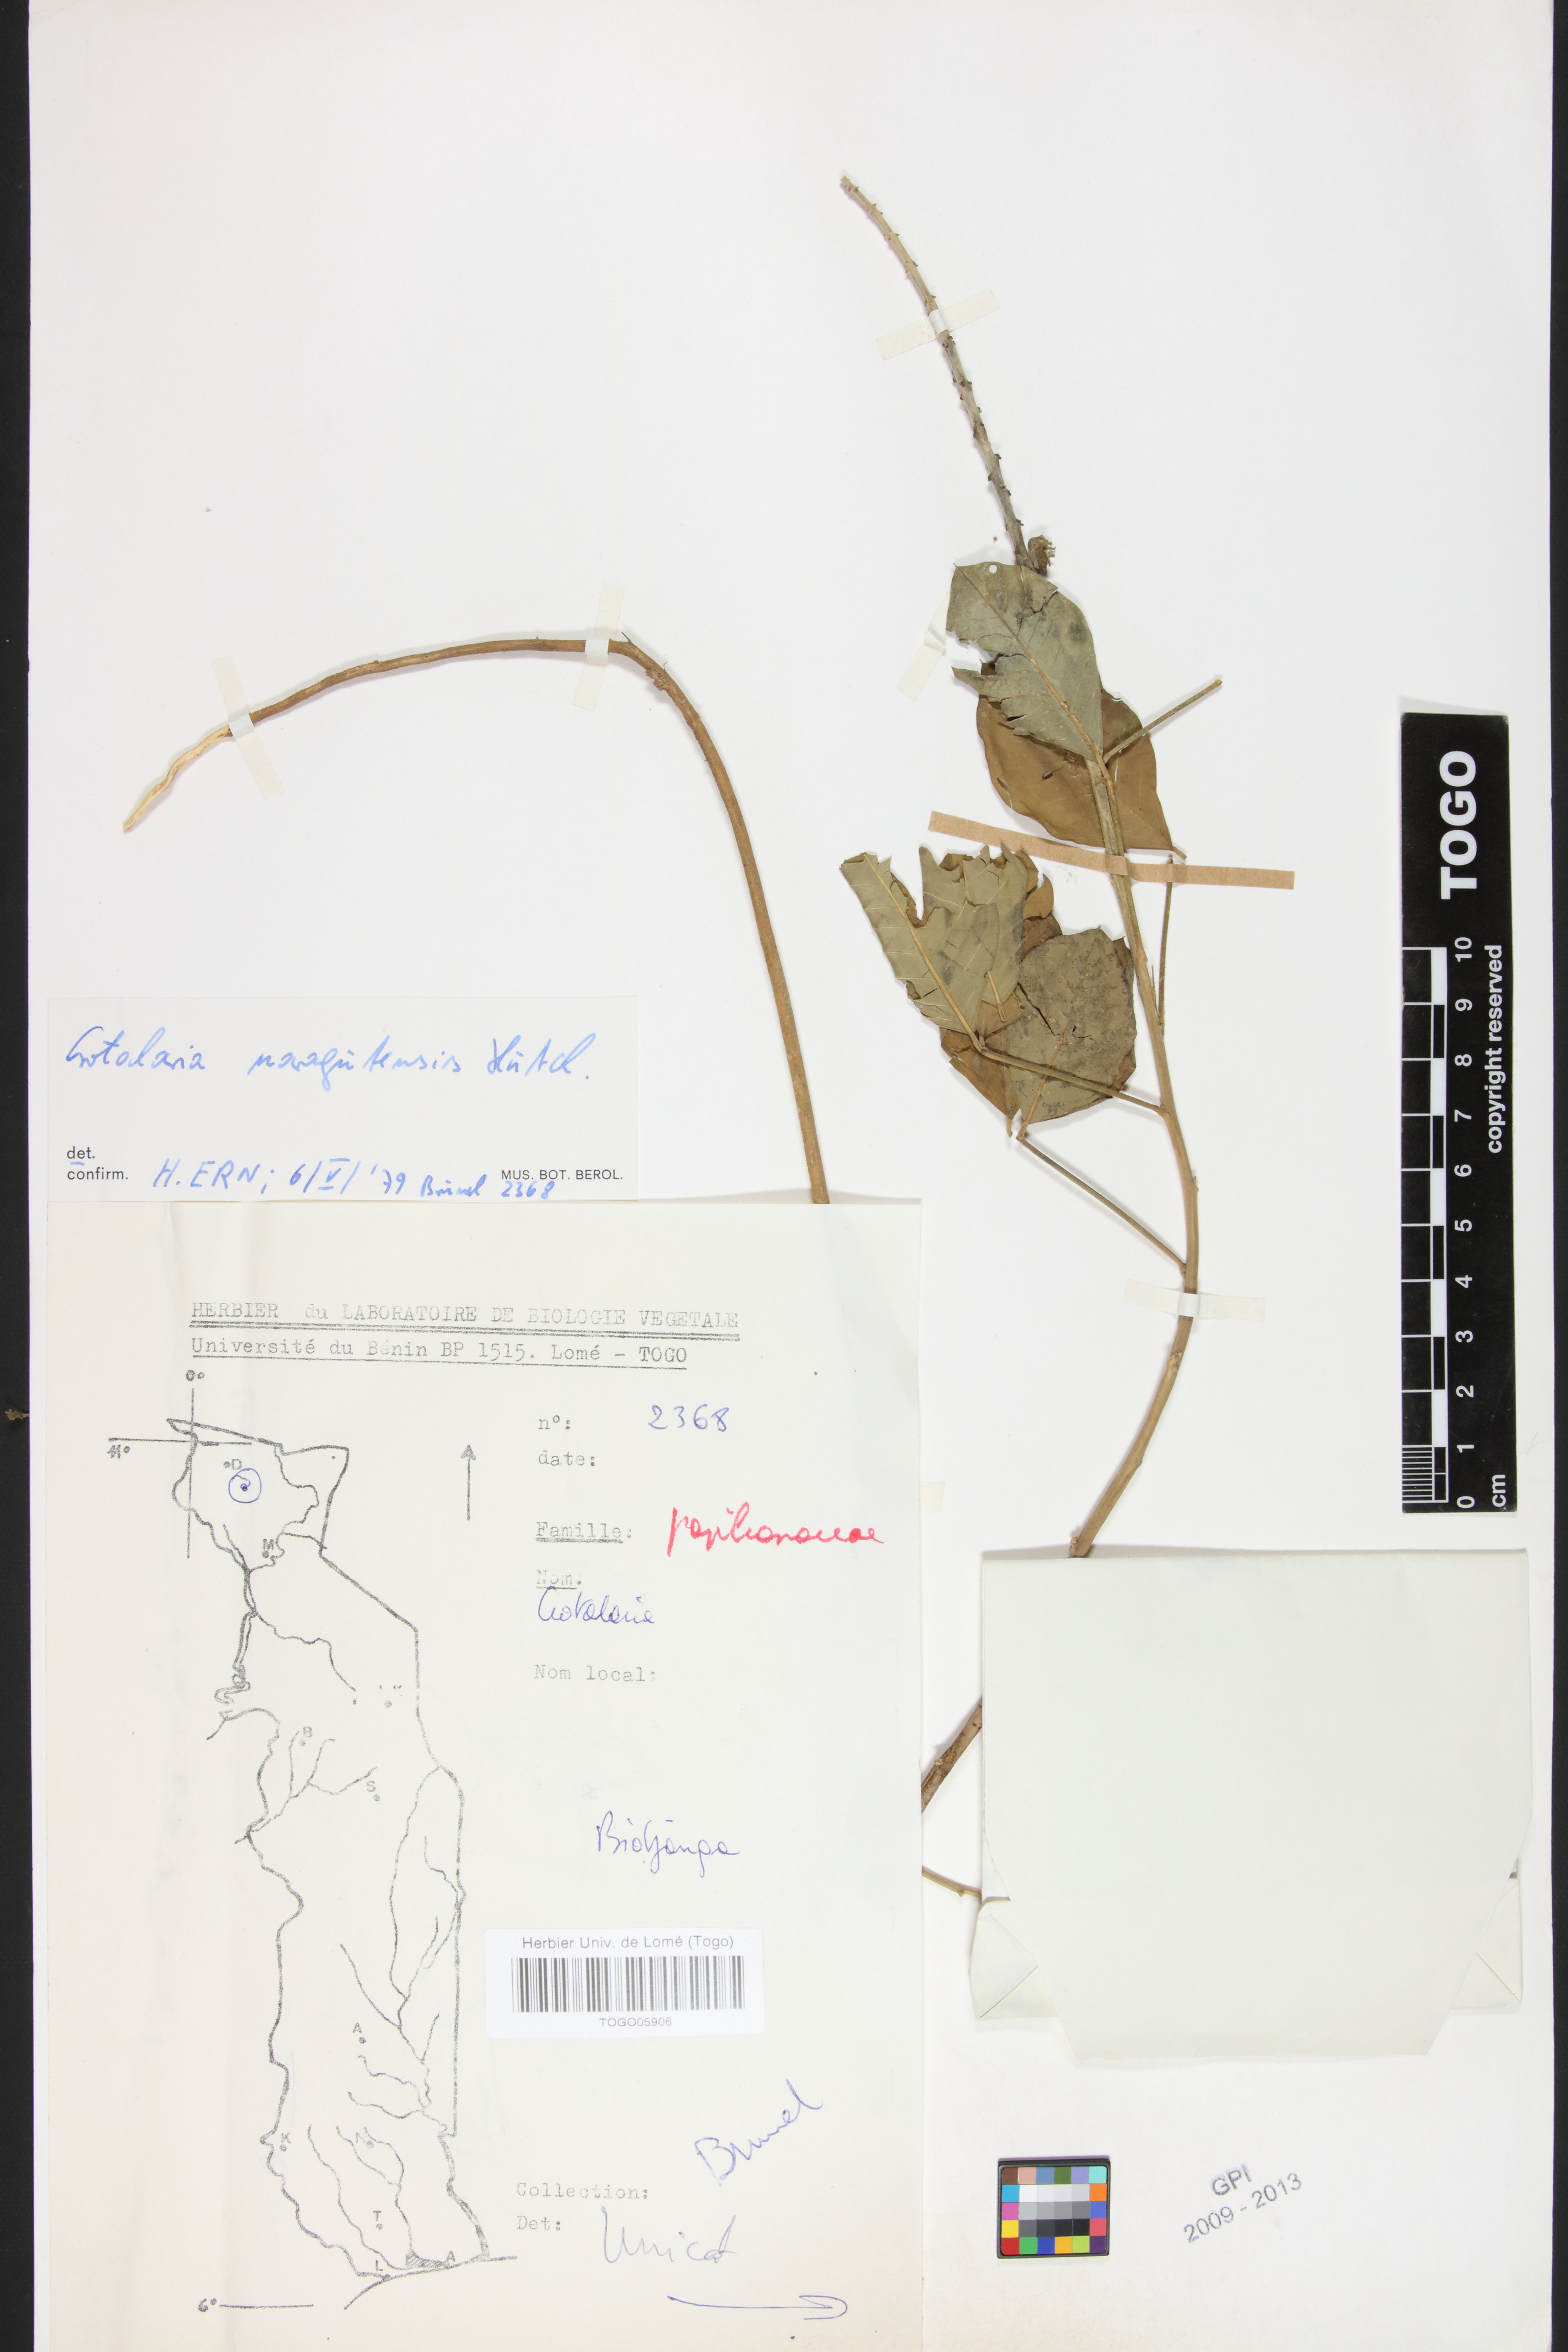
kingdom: Plantae
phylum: Tracheophyta
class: Magnoliopsida
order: Fabales
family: Fabaceae
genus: Crotalaria
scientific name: Crotalaria naragutensis
